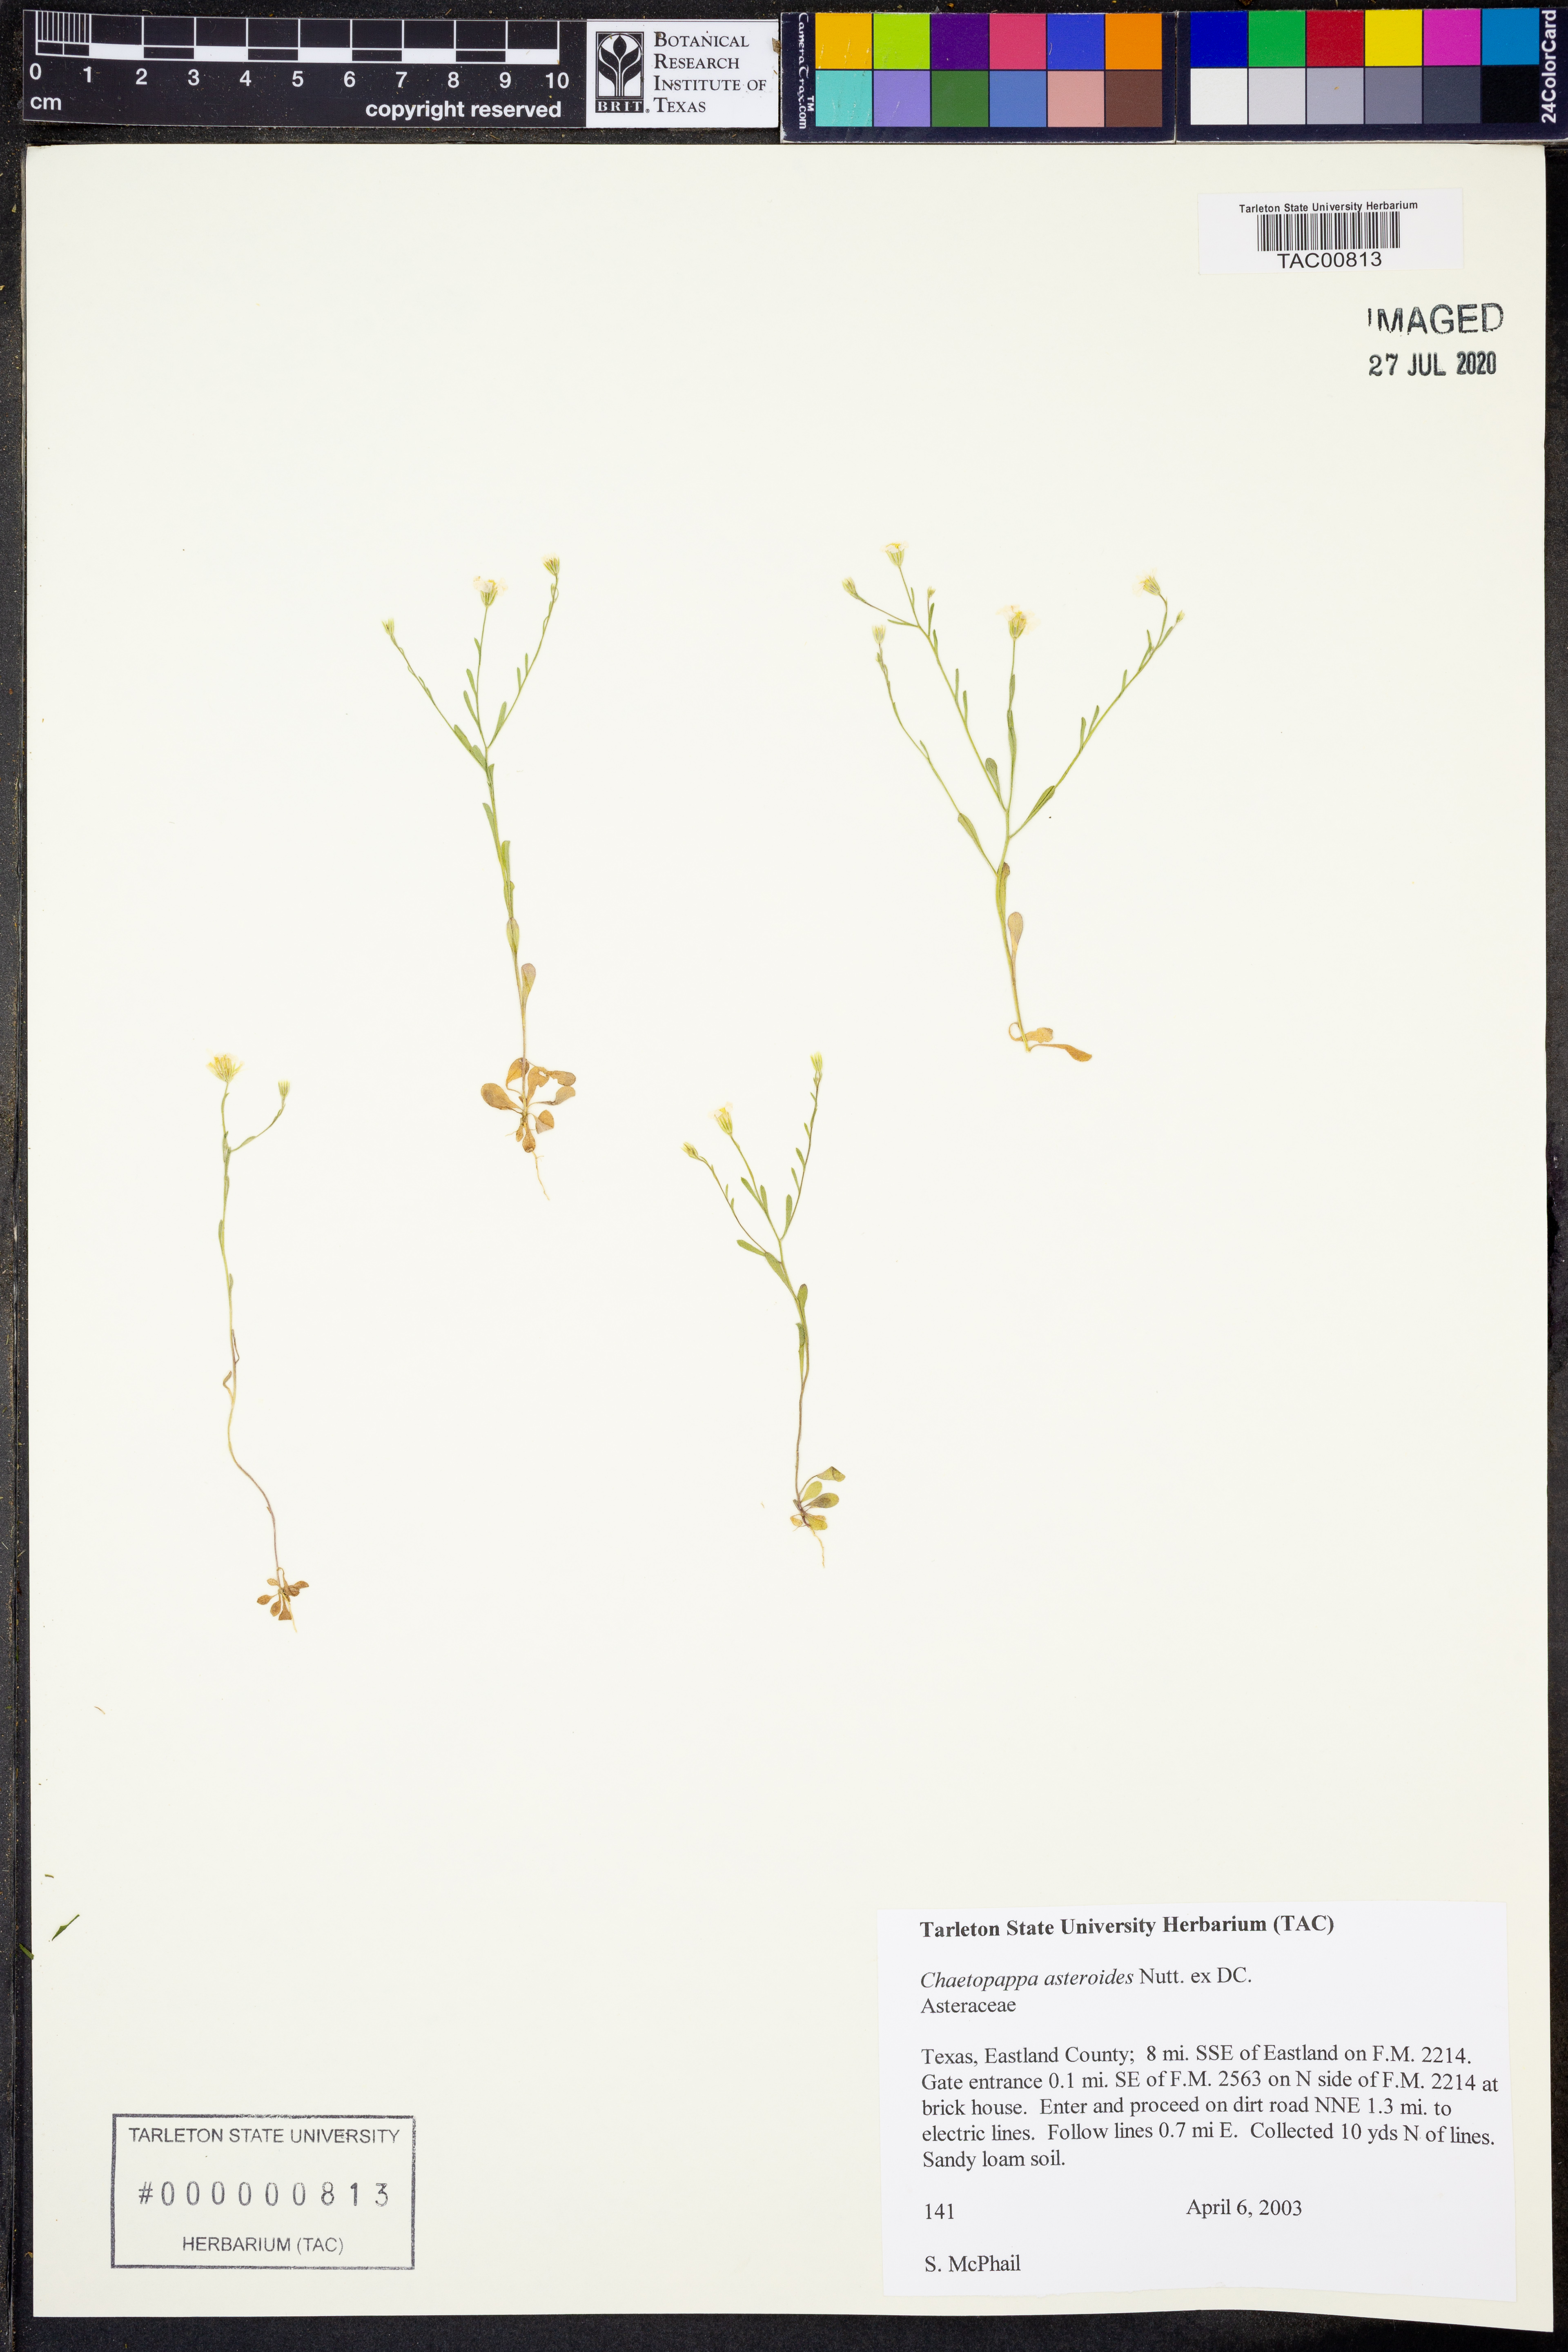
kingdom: Plantae
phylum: Tracheophyta
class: Magnoliopsida
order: Asterales
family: Asteraceae
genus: Chaetopappa
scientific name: Chaetopappa asteroides
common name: Tiny lazy daisy
